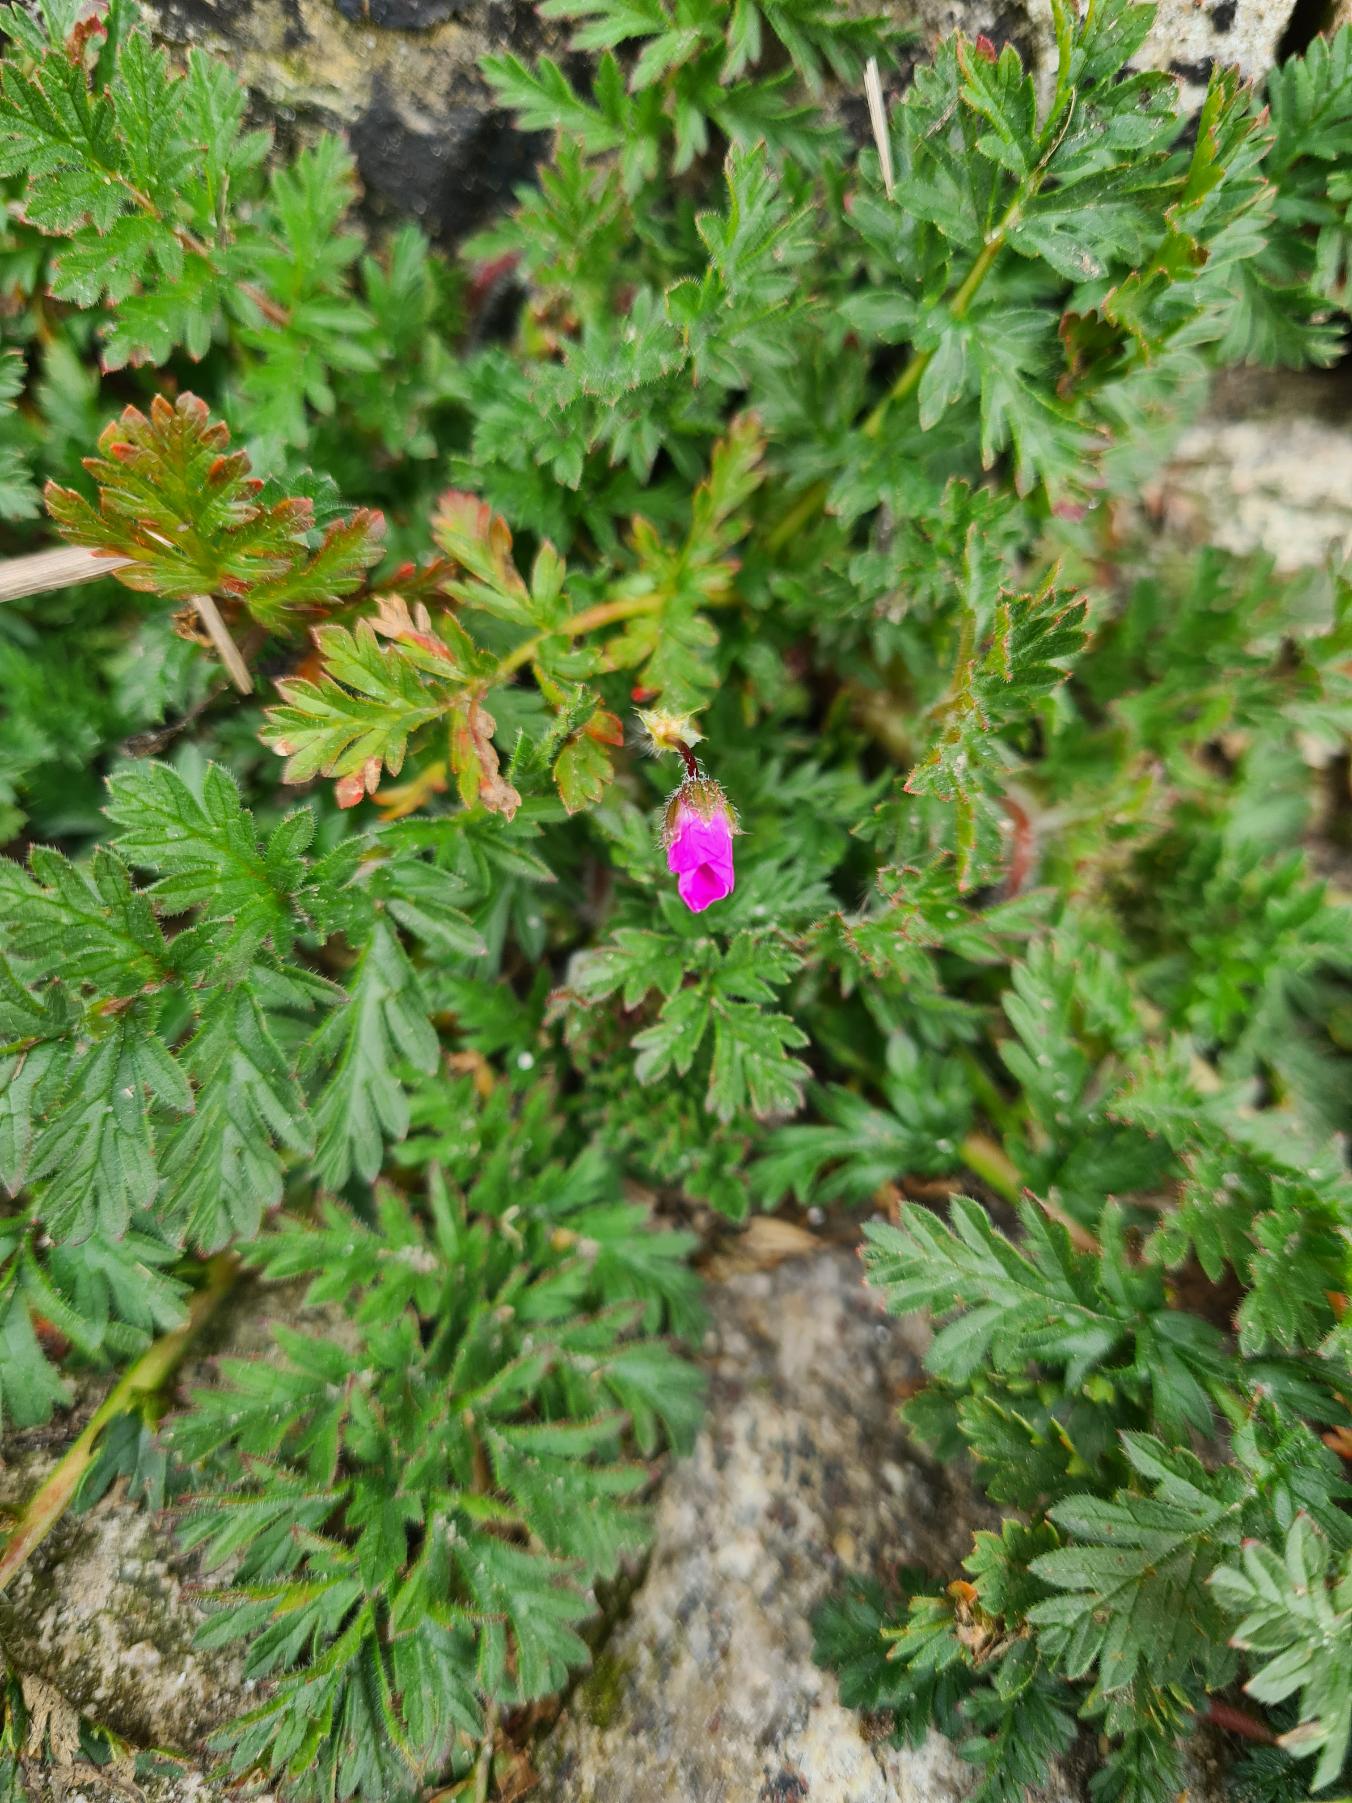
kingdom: Plantae
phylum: Tracheophyta
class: Magnoliopsida
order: Geraniales
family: Geraniaceae
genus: Erodium
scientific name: Erodium cicutarium
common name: Hejrenæb
